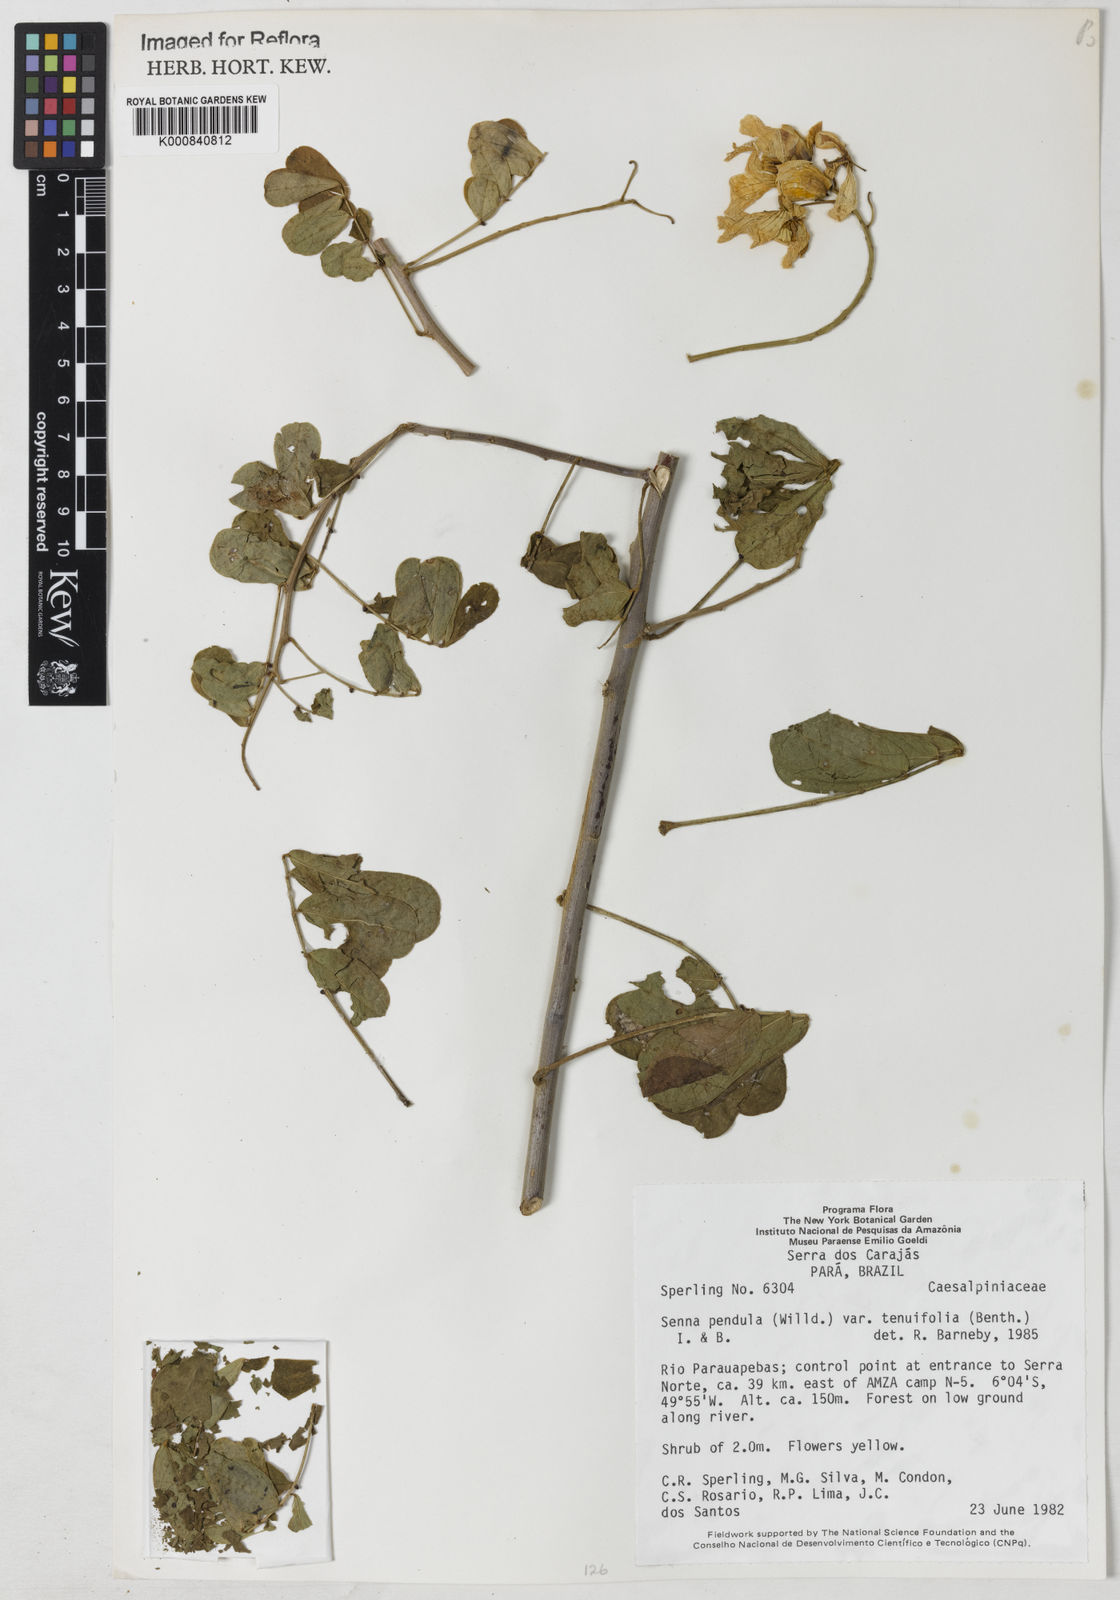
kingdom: Plantae
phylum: Tracheophyta
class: Magnoliopsida
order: Fabales
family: Fabaceae
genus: Senna
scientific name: Senna pendula
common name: Easter cassia
